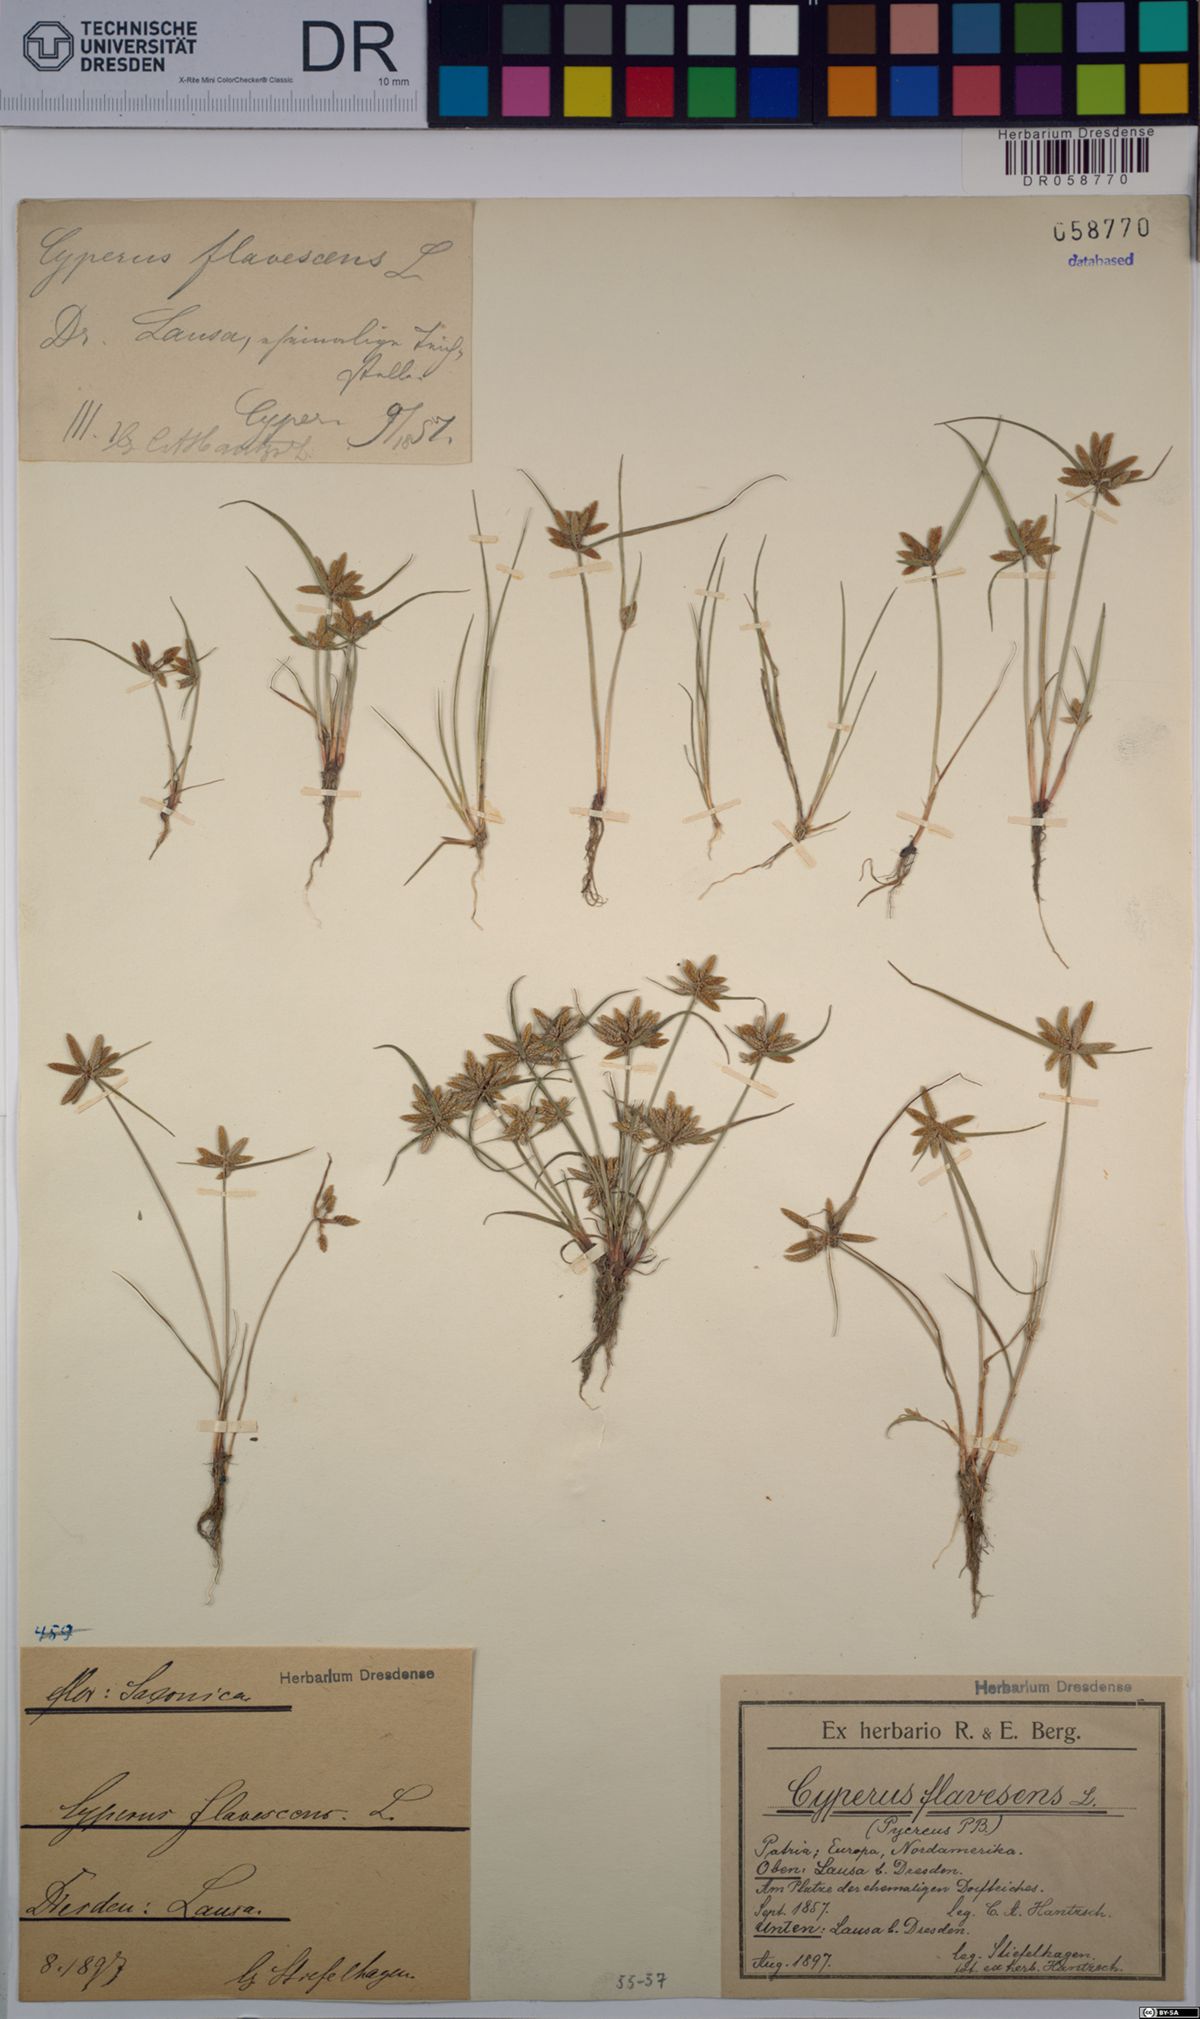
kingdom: Plantae
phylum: Tracheophyta
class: Liliopsida
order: Poales
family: Cyperaceae
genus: Cyperus
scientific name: Cyperus flavescens
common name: Yellow galingale
